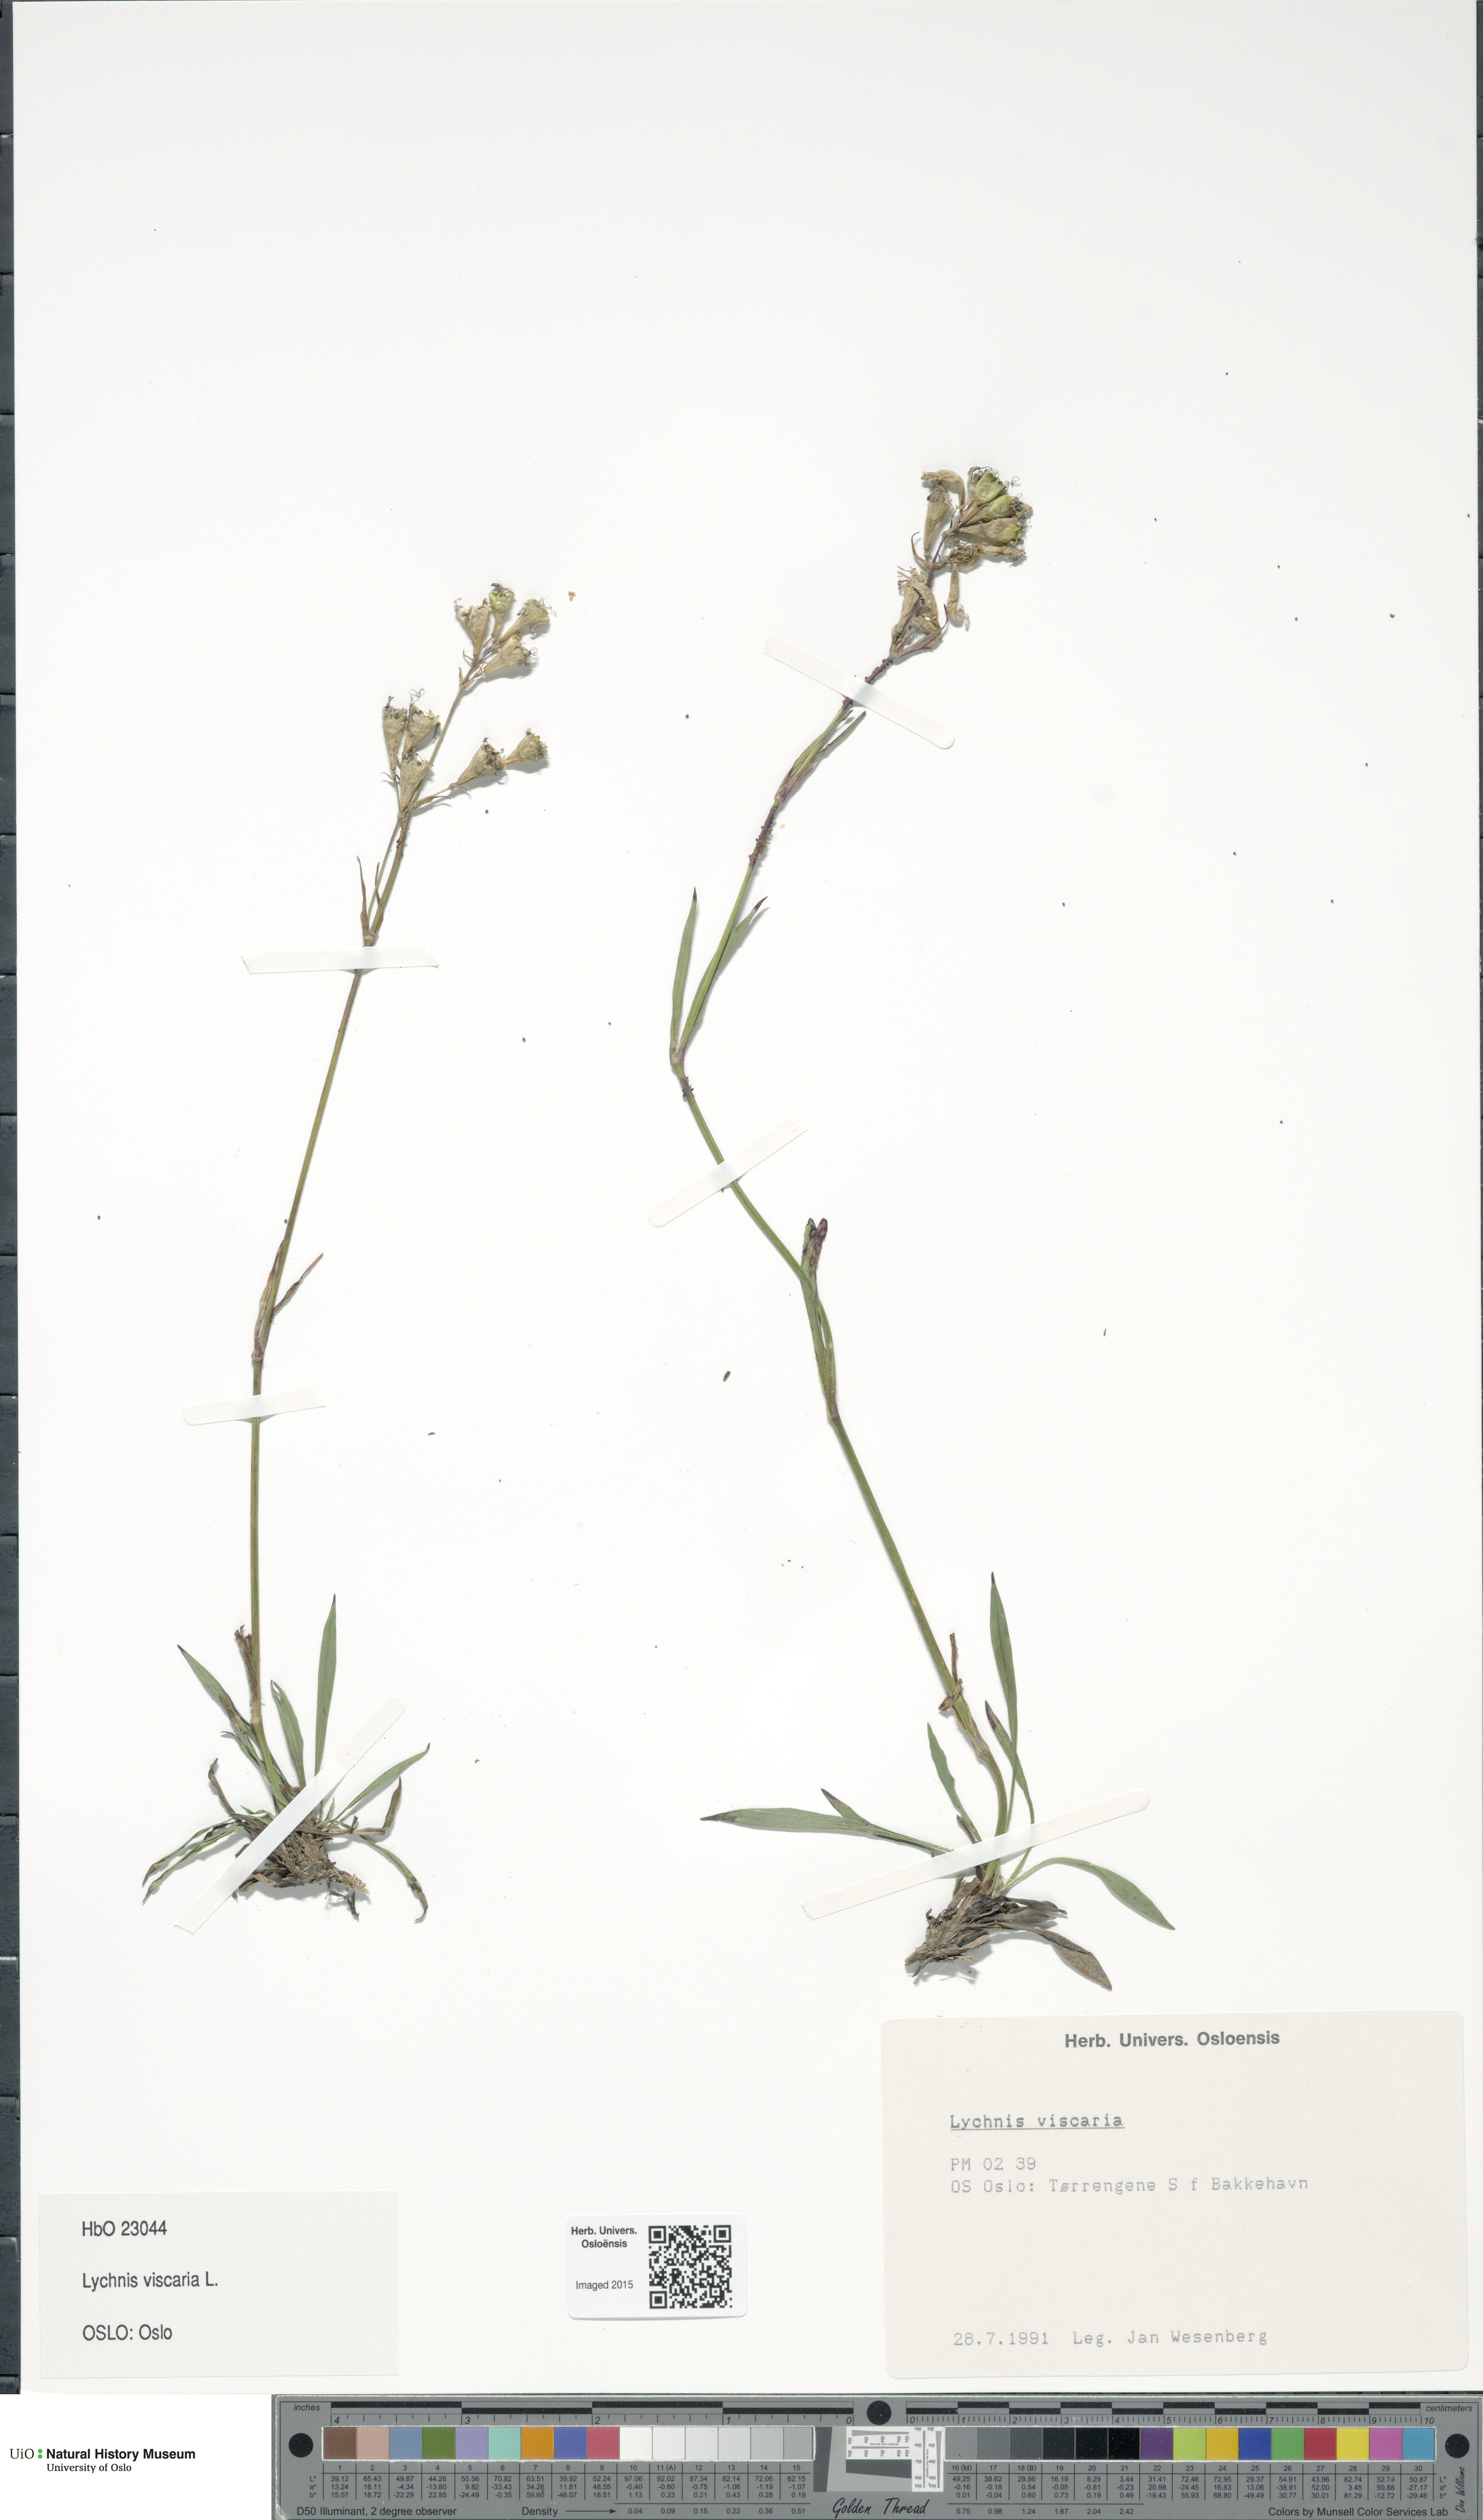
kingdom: Plantae
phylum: Tracheophyta
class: Magnoliopsida
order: Caryophyllales
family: Caryophyllaceae
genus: Viscaria
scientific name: Viscaria vulgaris
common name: Clammy campion
